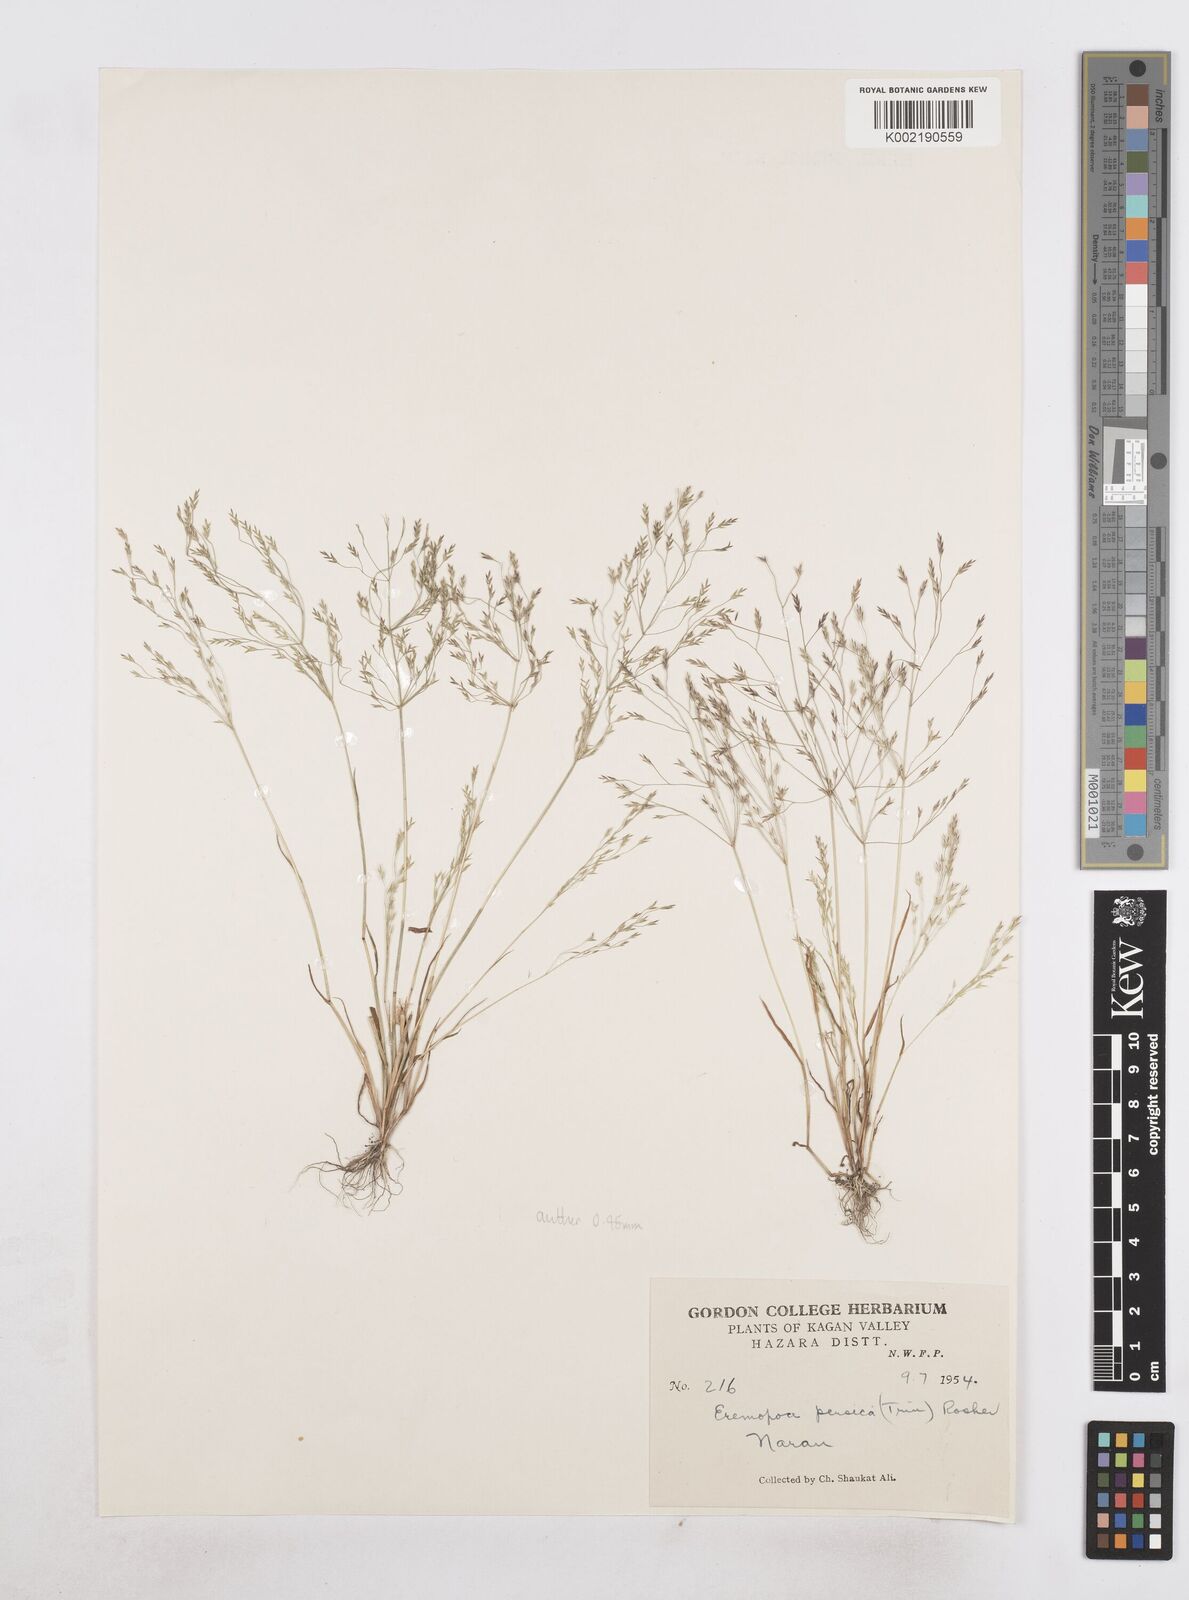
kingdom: Plantae
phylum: Tracheophyta
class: Liliopsida
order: Poales
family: Poaceae
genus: Poa
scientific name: Poa diaphora
